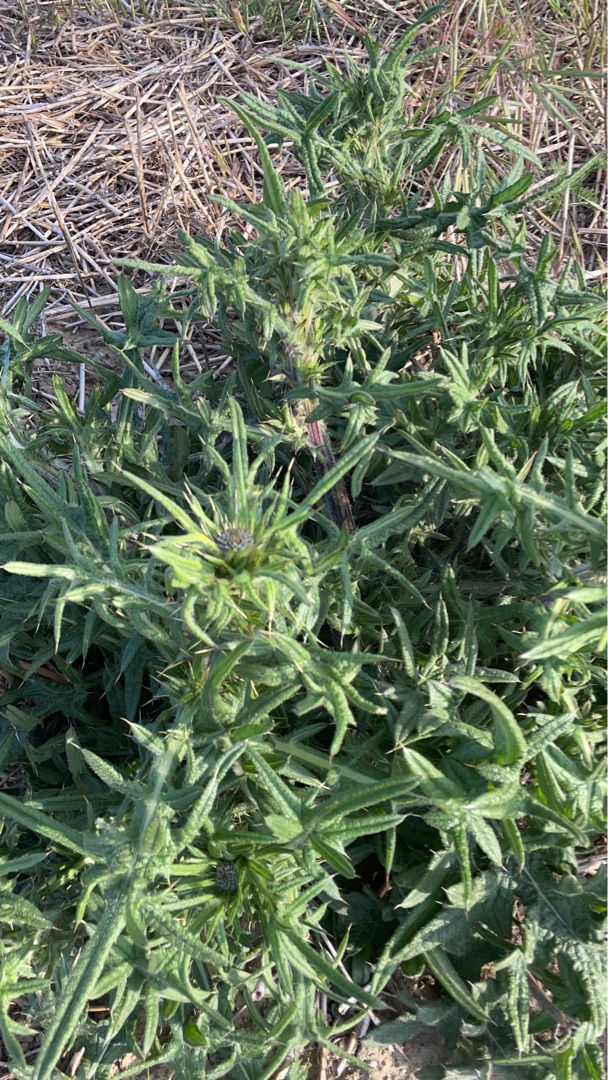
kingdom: Plantae
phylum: Tracheophyta
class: Magnoliopsida
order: Asterales
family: Asteraceae
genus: Cirsium
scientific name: Cirsium vulgare
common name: Horse-tidsel
